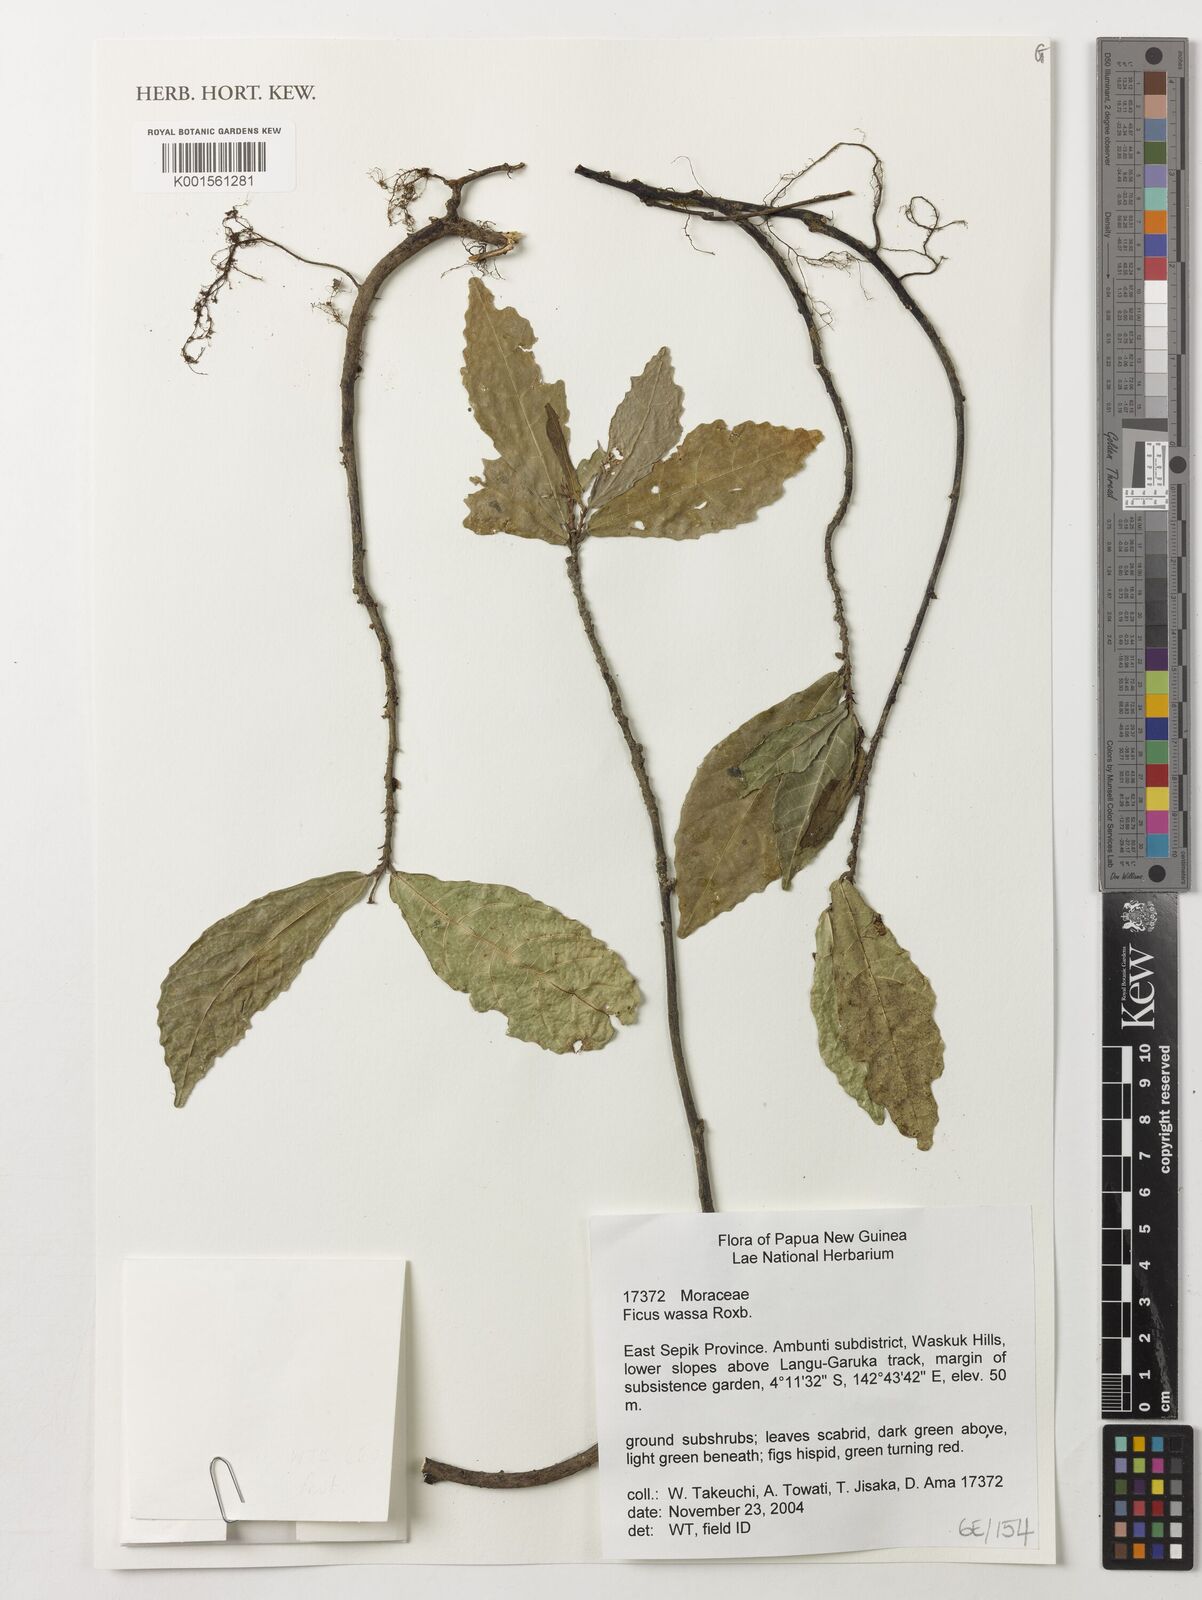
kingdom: Plantae
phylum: Tracheophyta
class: Magnoliopsida
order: Rosales
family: Moraceae
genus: Ficus
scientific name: Ficus wassa
